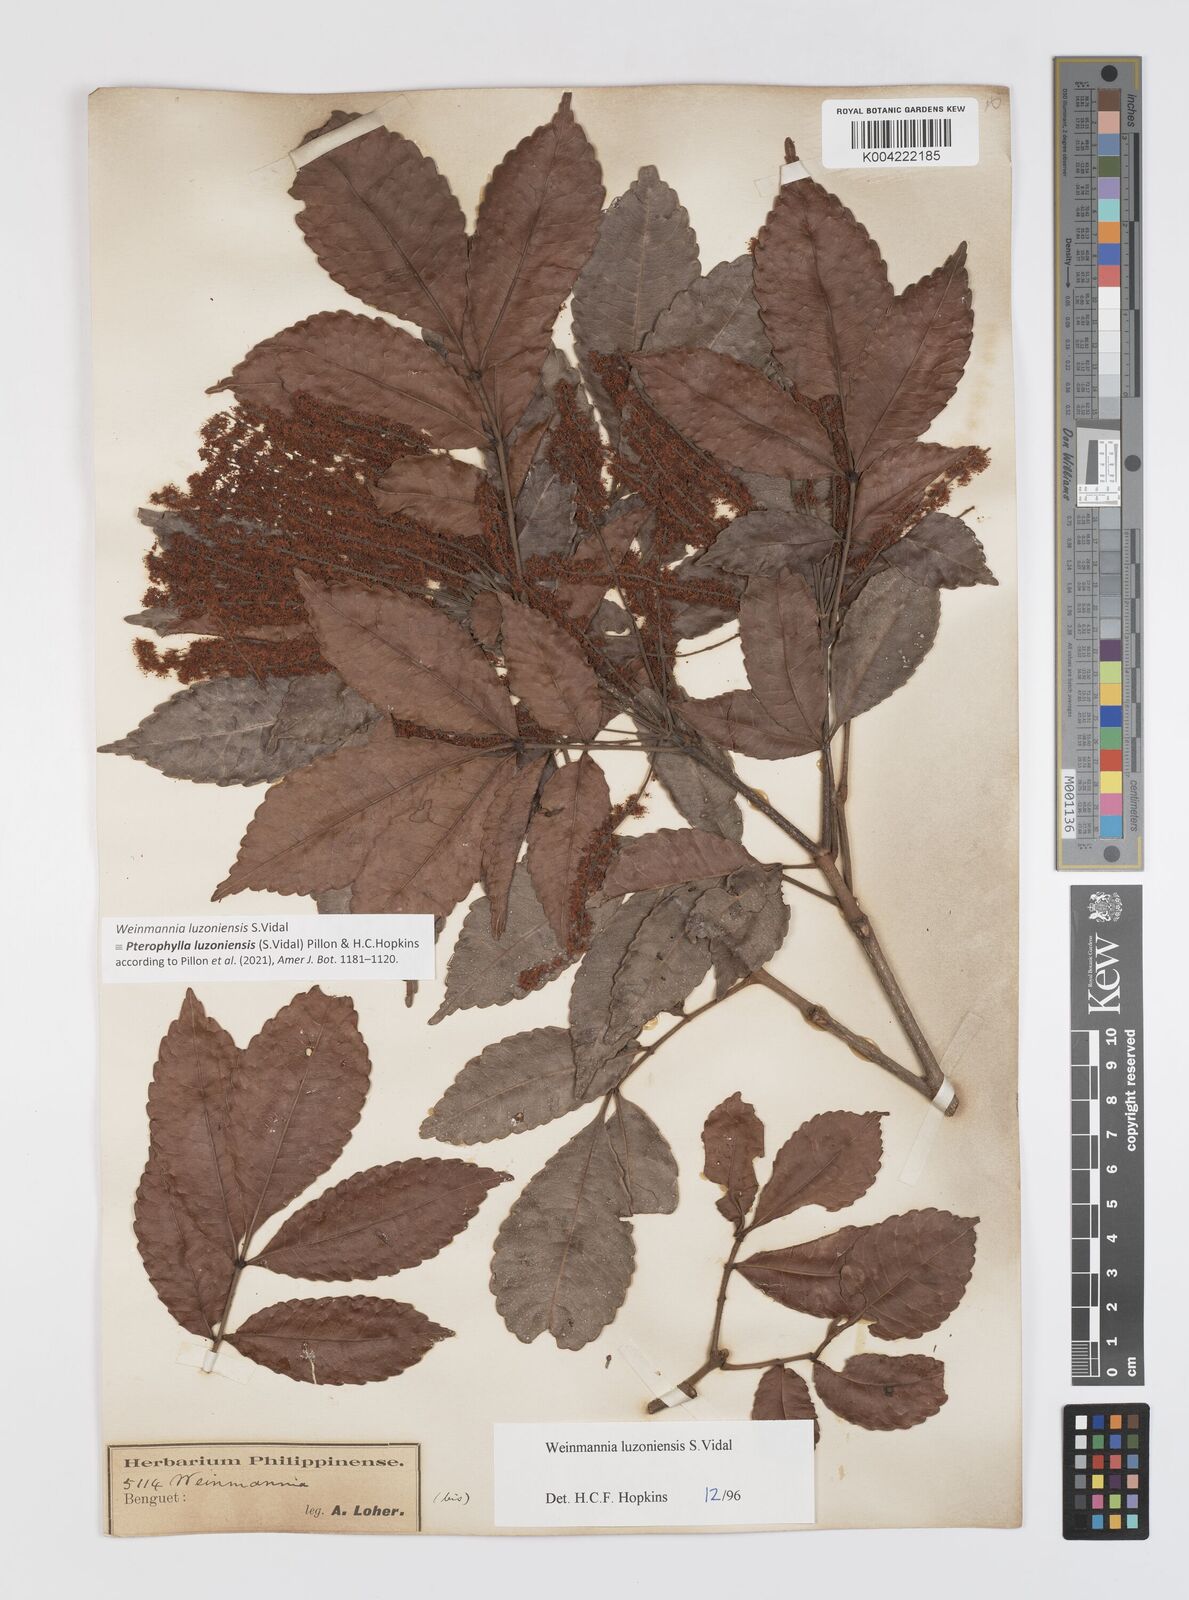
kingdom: Plantae
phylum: Tracheophyta
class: Magnoliopsida
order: Oxalidales
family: Cunoniaceae
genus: Pterophylla
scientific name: Pterophylla luzoniensis
